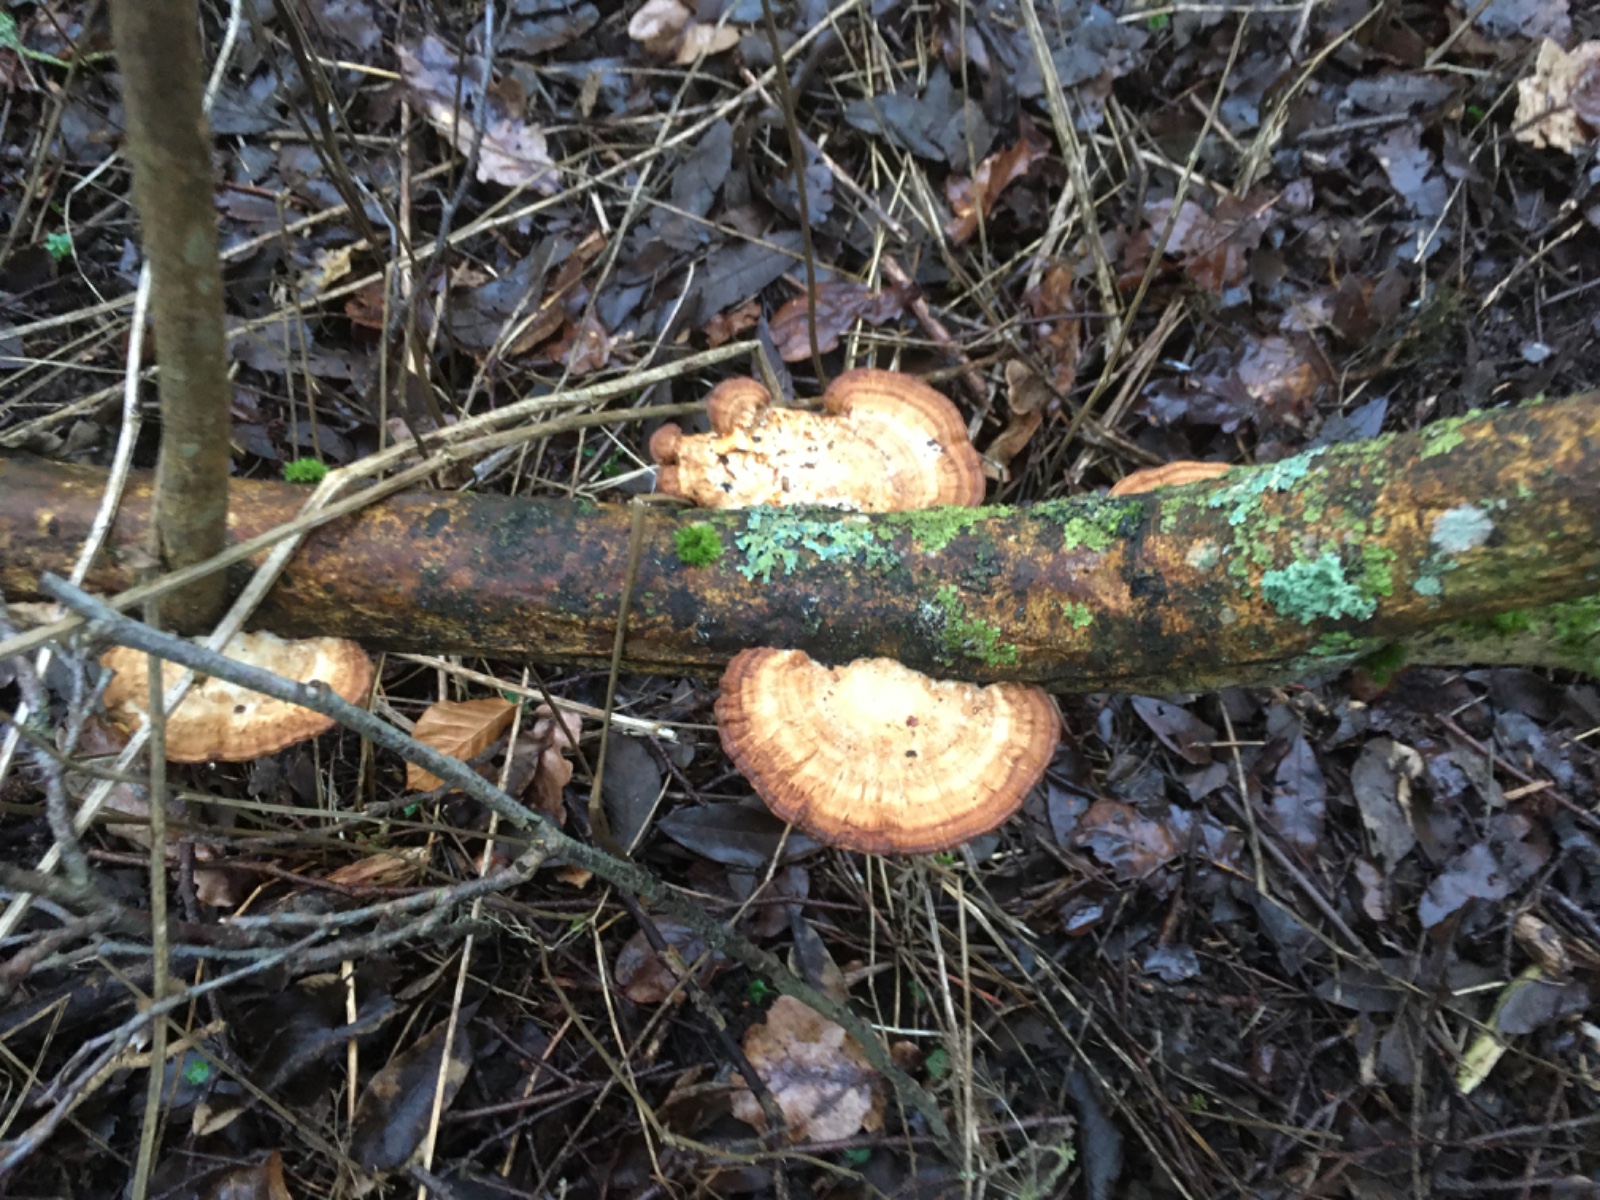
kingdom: Fungi
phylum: Basidiomycota
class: Agaricomycetes
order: Polyporales
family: Polyporaceae
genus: Daedaleopsis
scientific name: Daedaleopsis confragosa
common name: rødmende læderporesvamp
